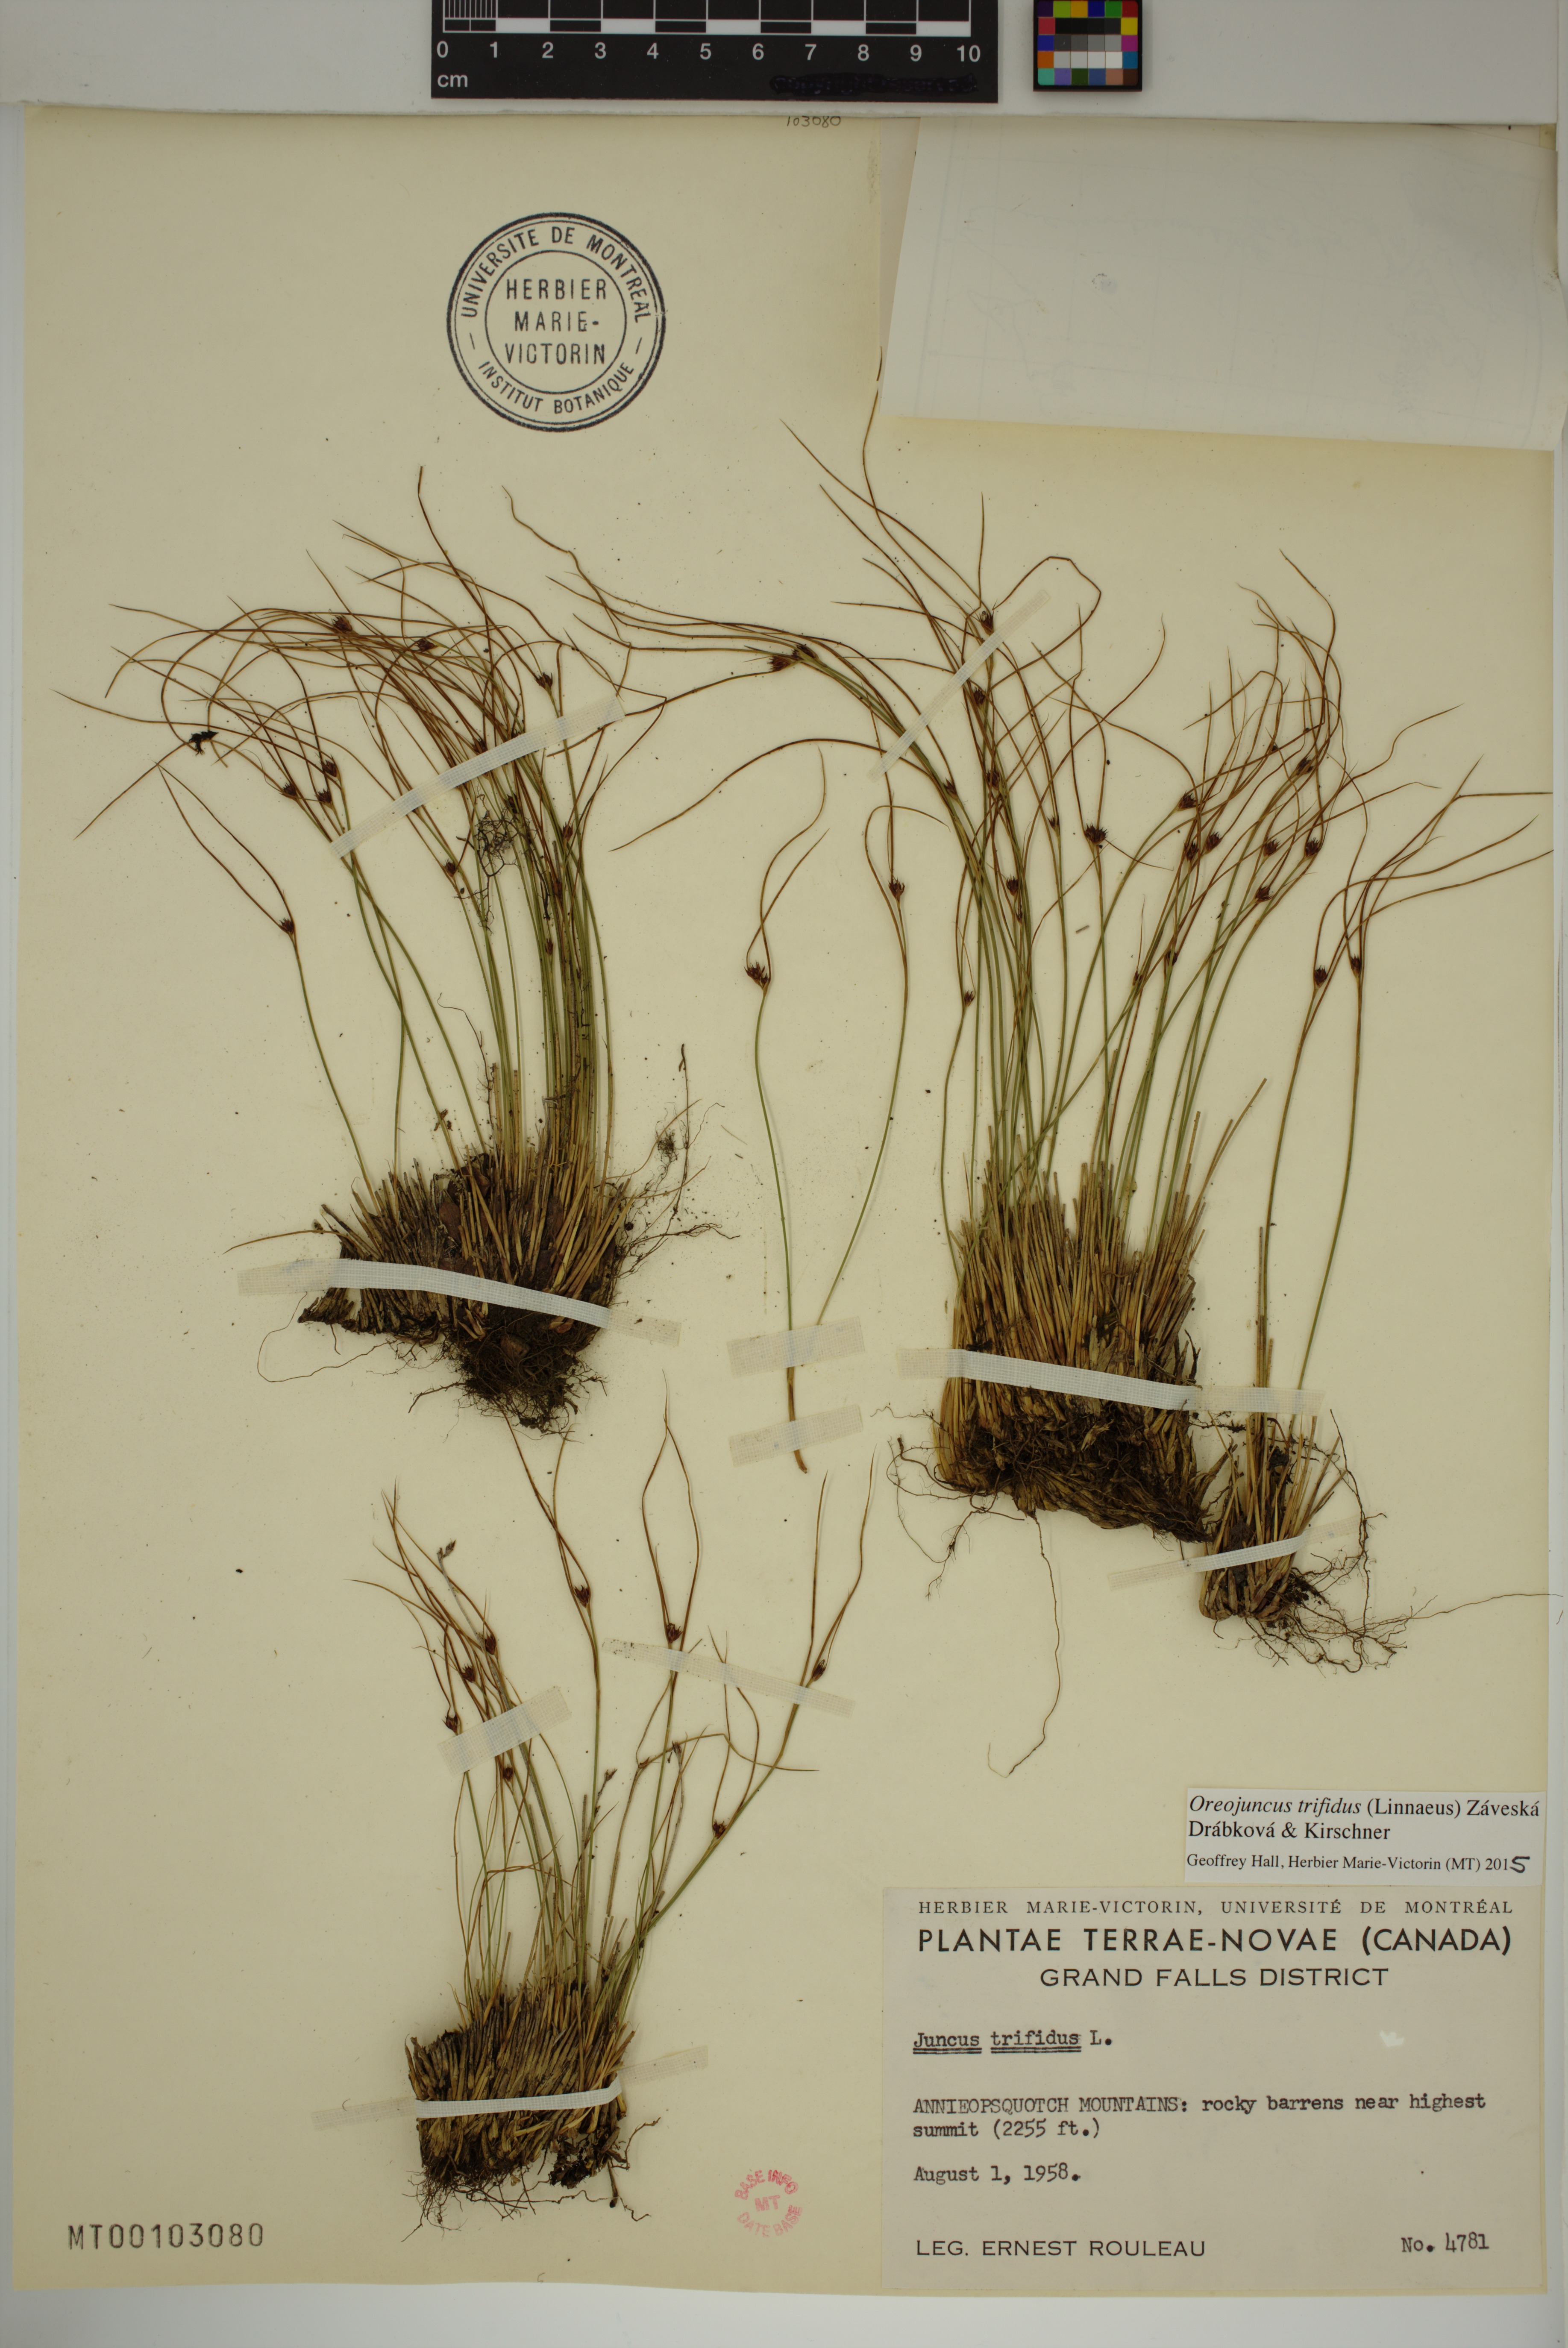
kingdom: Plantae
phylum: Tracheophyta
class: Liliopsida
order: Poales
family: Juncaceae
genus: Oreojuncus
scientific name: Oreojuncus trifidus
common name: Highland rush
